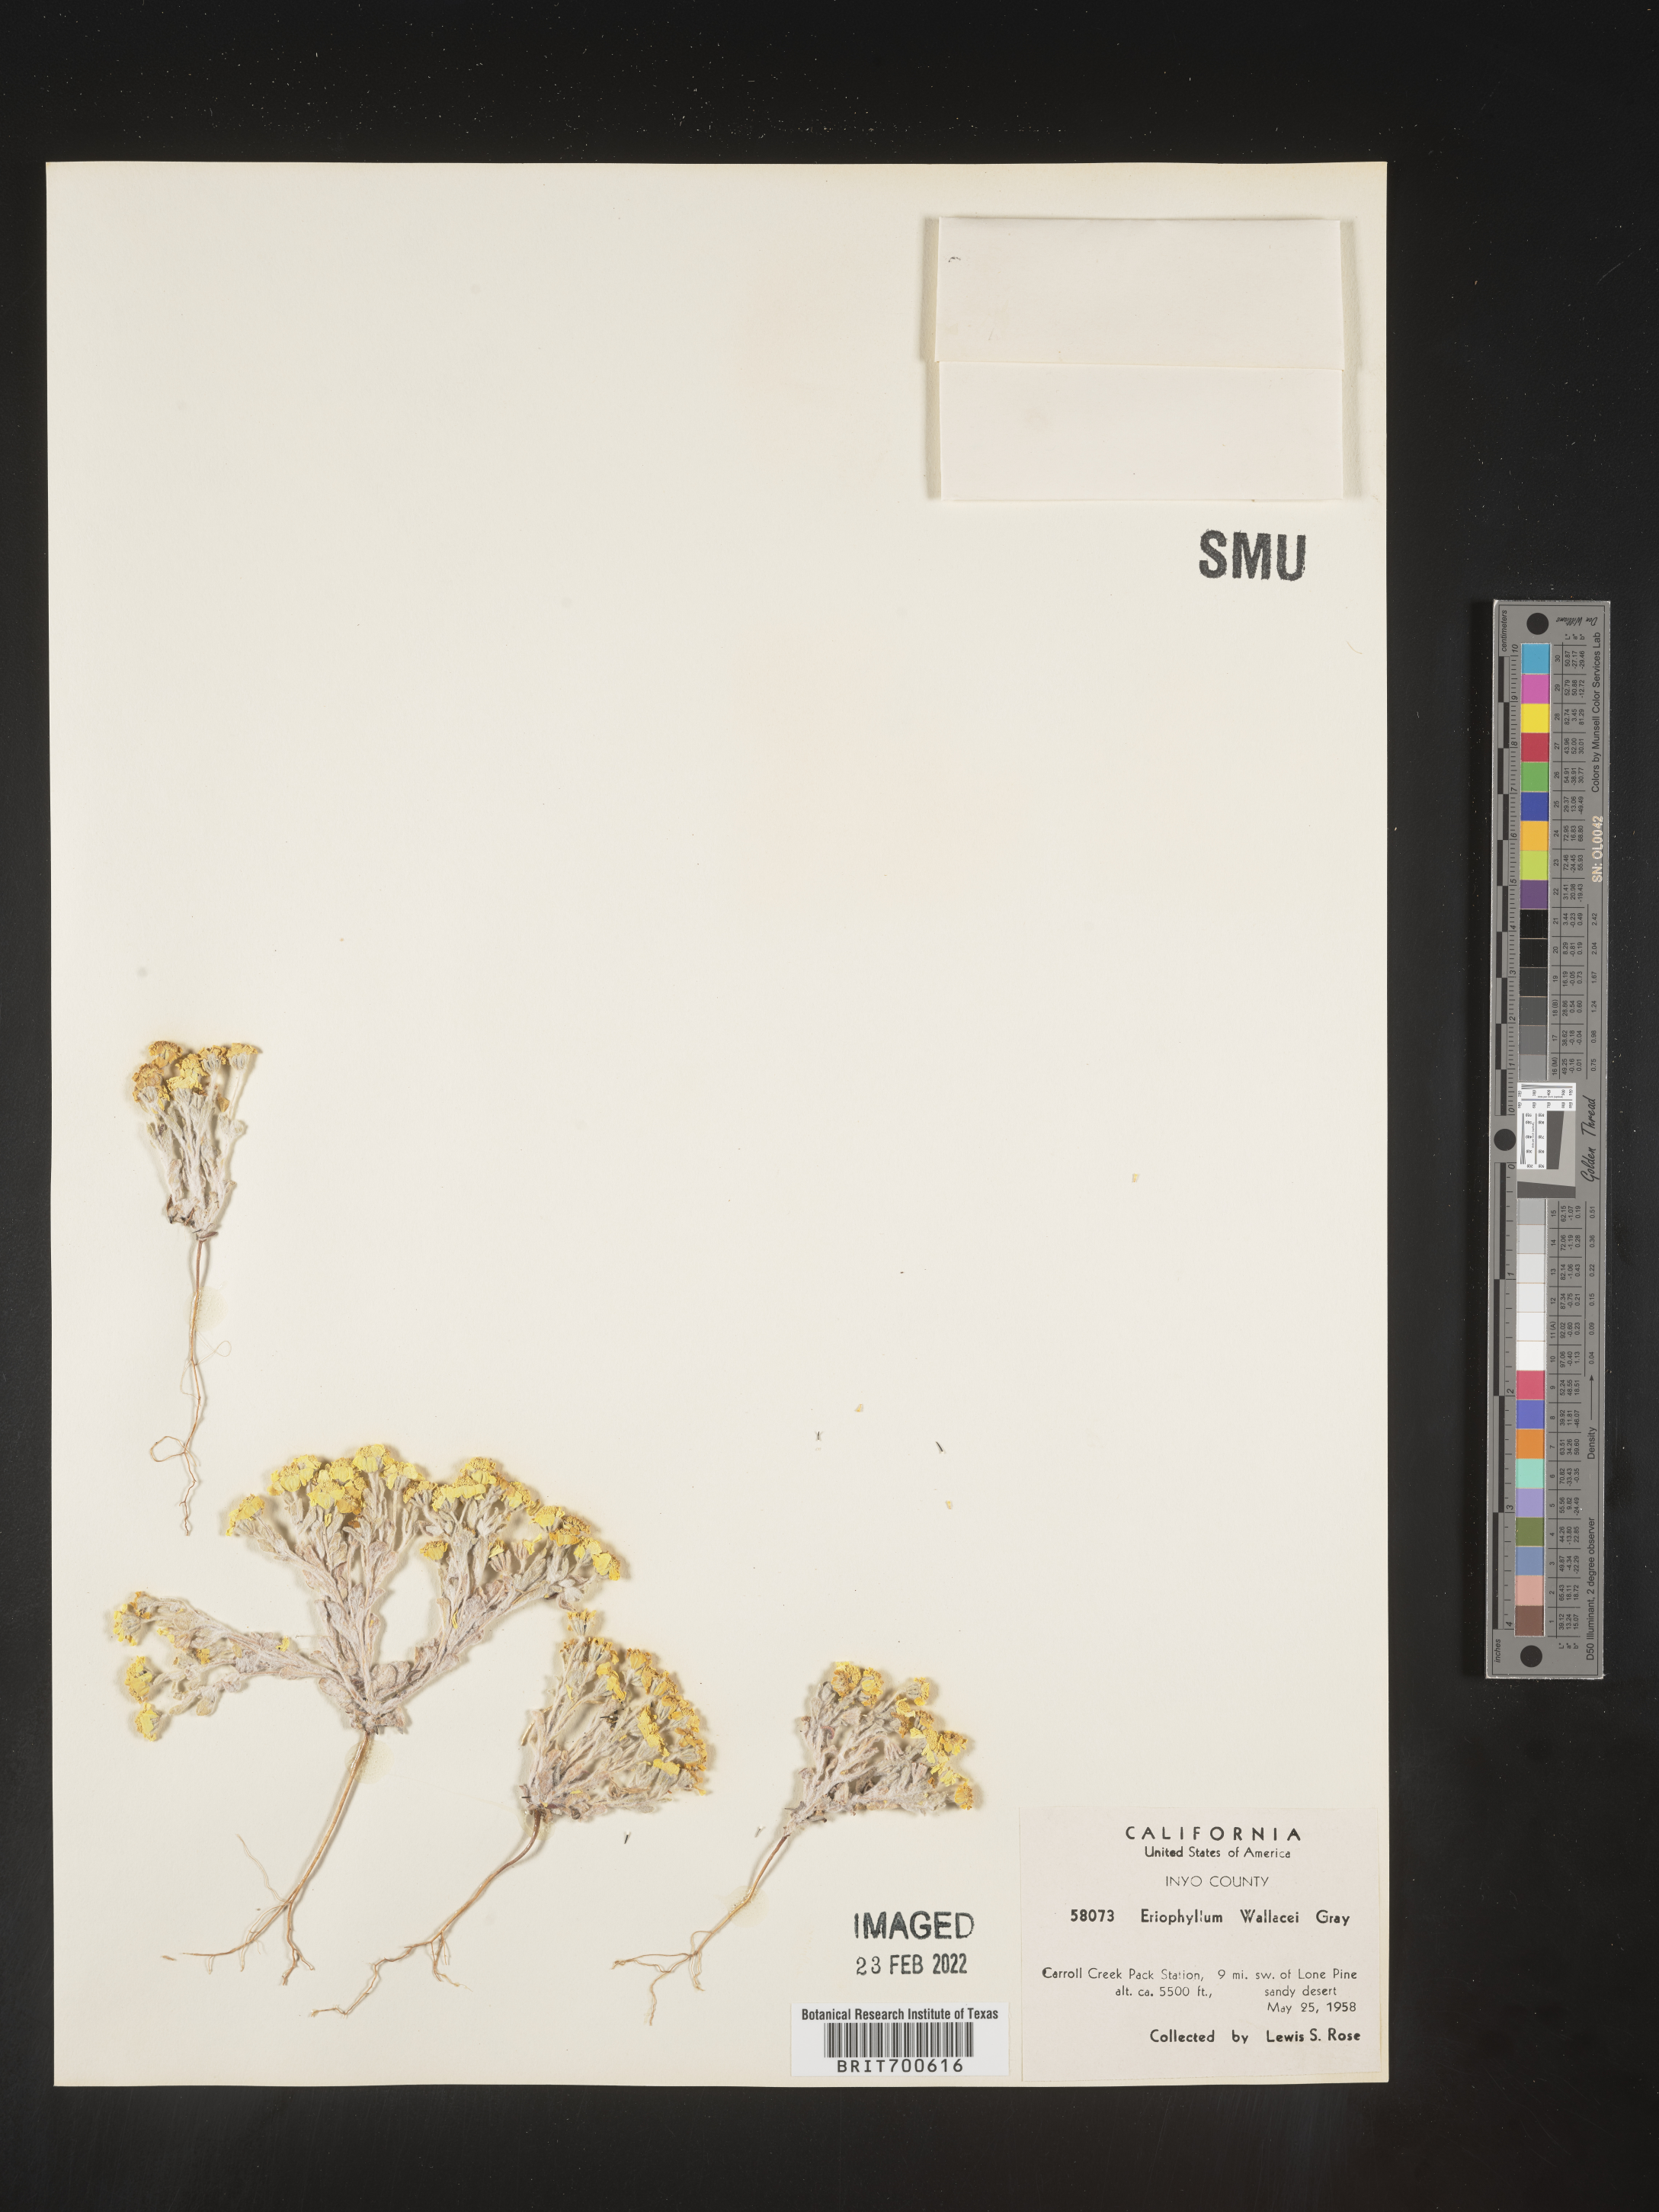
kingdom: Plantae
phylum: Tracheophyta
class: Magnoliopsida
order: Asterales
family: Asteraceae
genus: Eriophyllum
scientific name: Eriophyllum wallacei
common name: Wallace's woolly daisy
